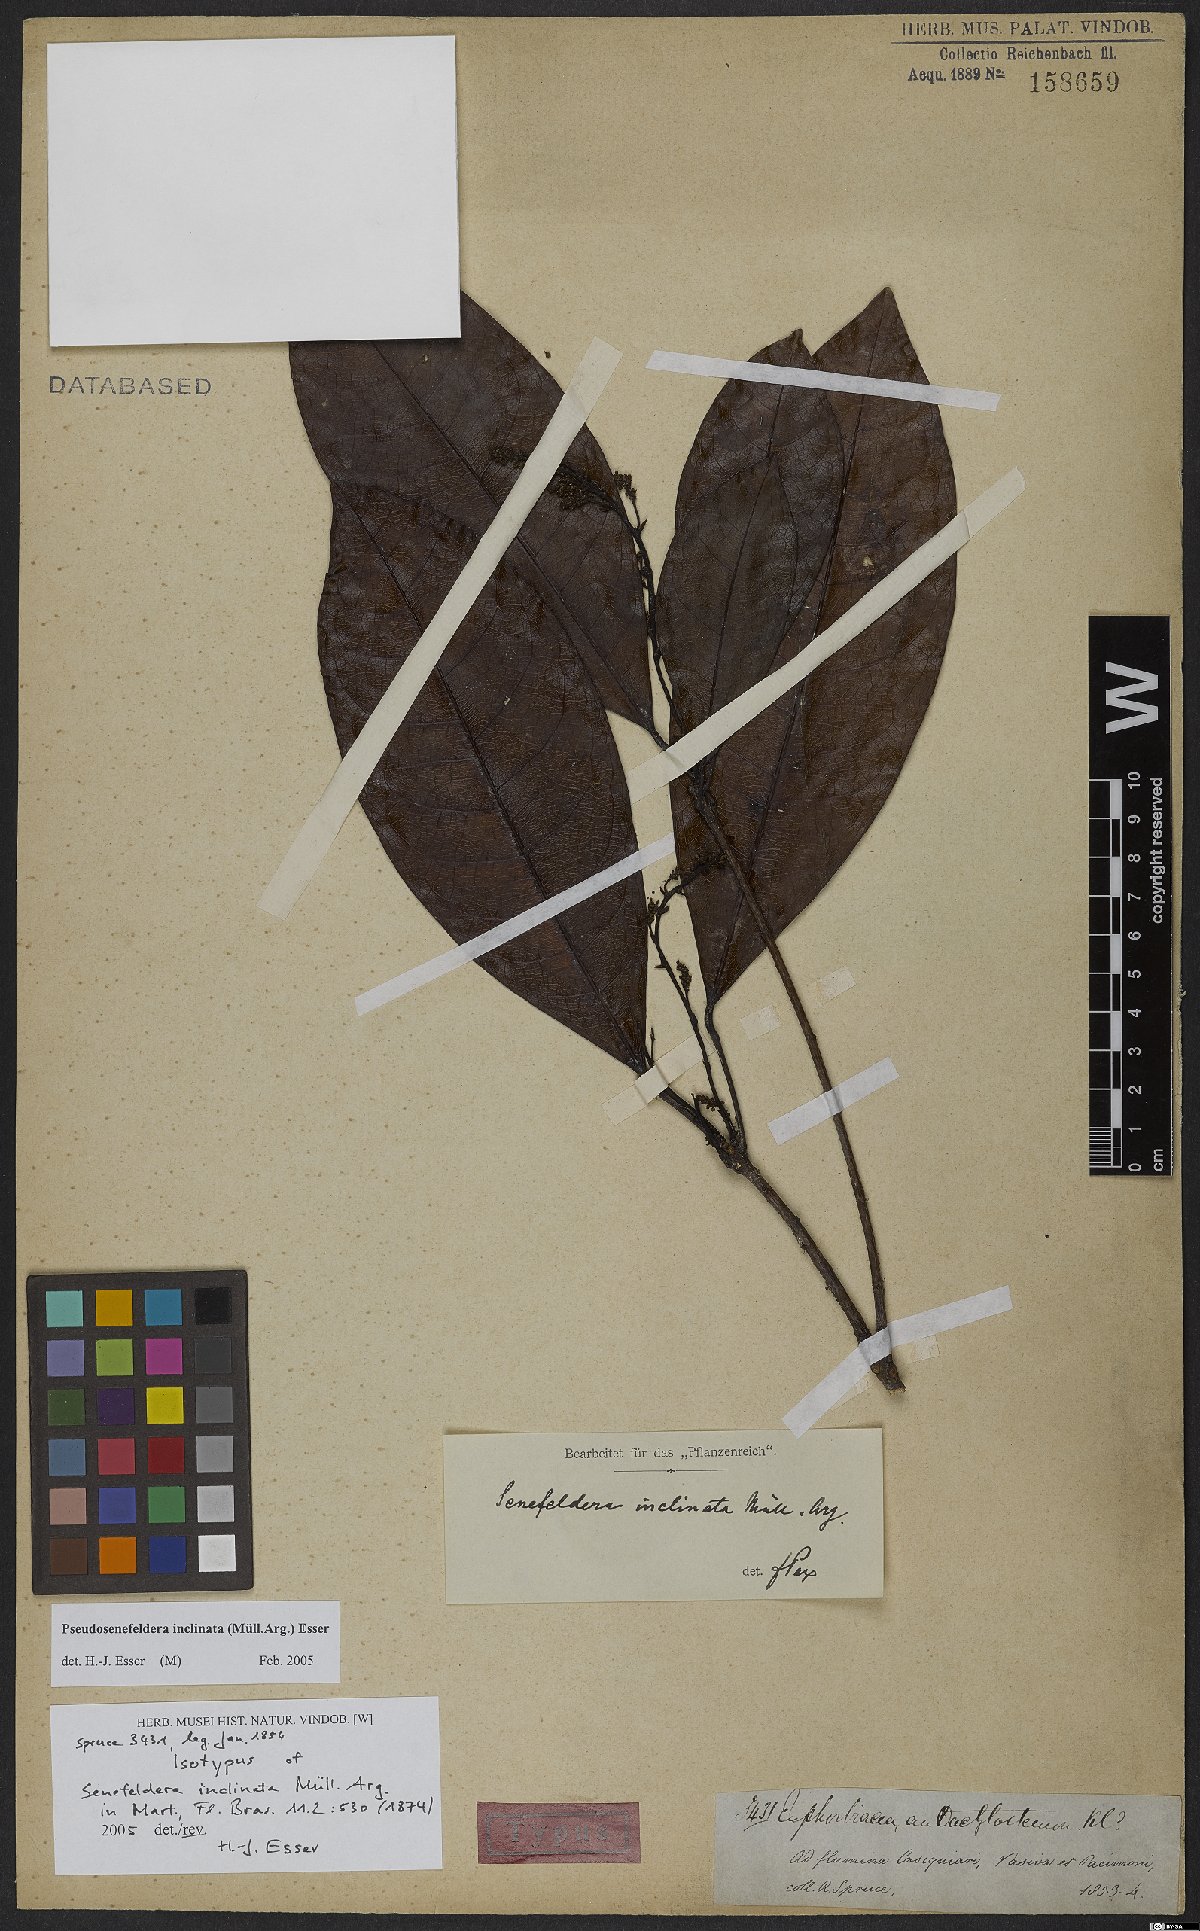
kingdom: Plantae
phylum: Tracheophyta
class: Magnoliopsida
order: Malpighiales
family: Euphorbiaceae
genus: Pseudosenefeldera
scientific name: Pseudosenefeldera inclinata
